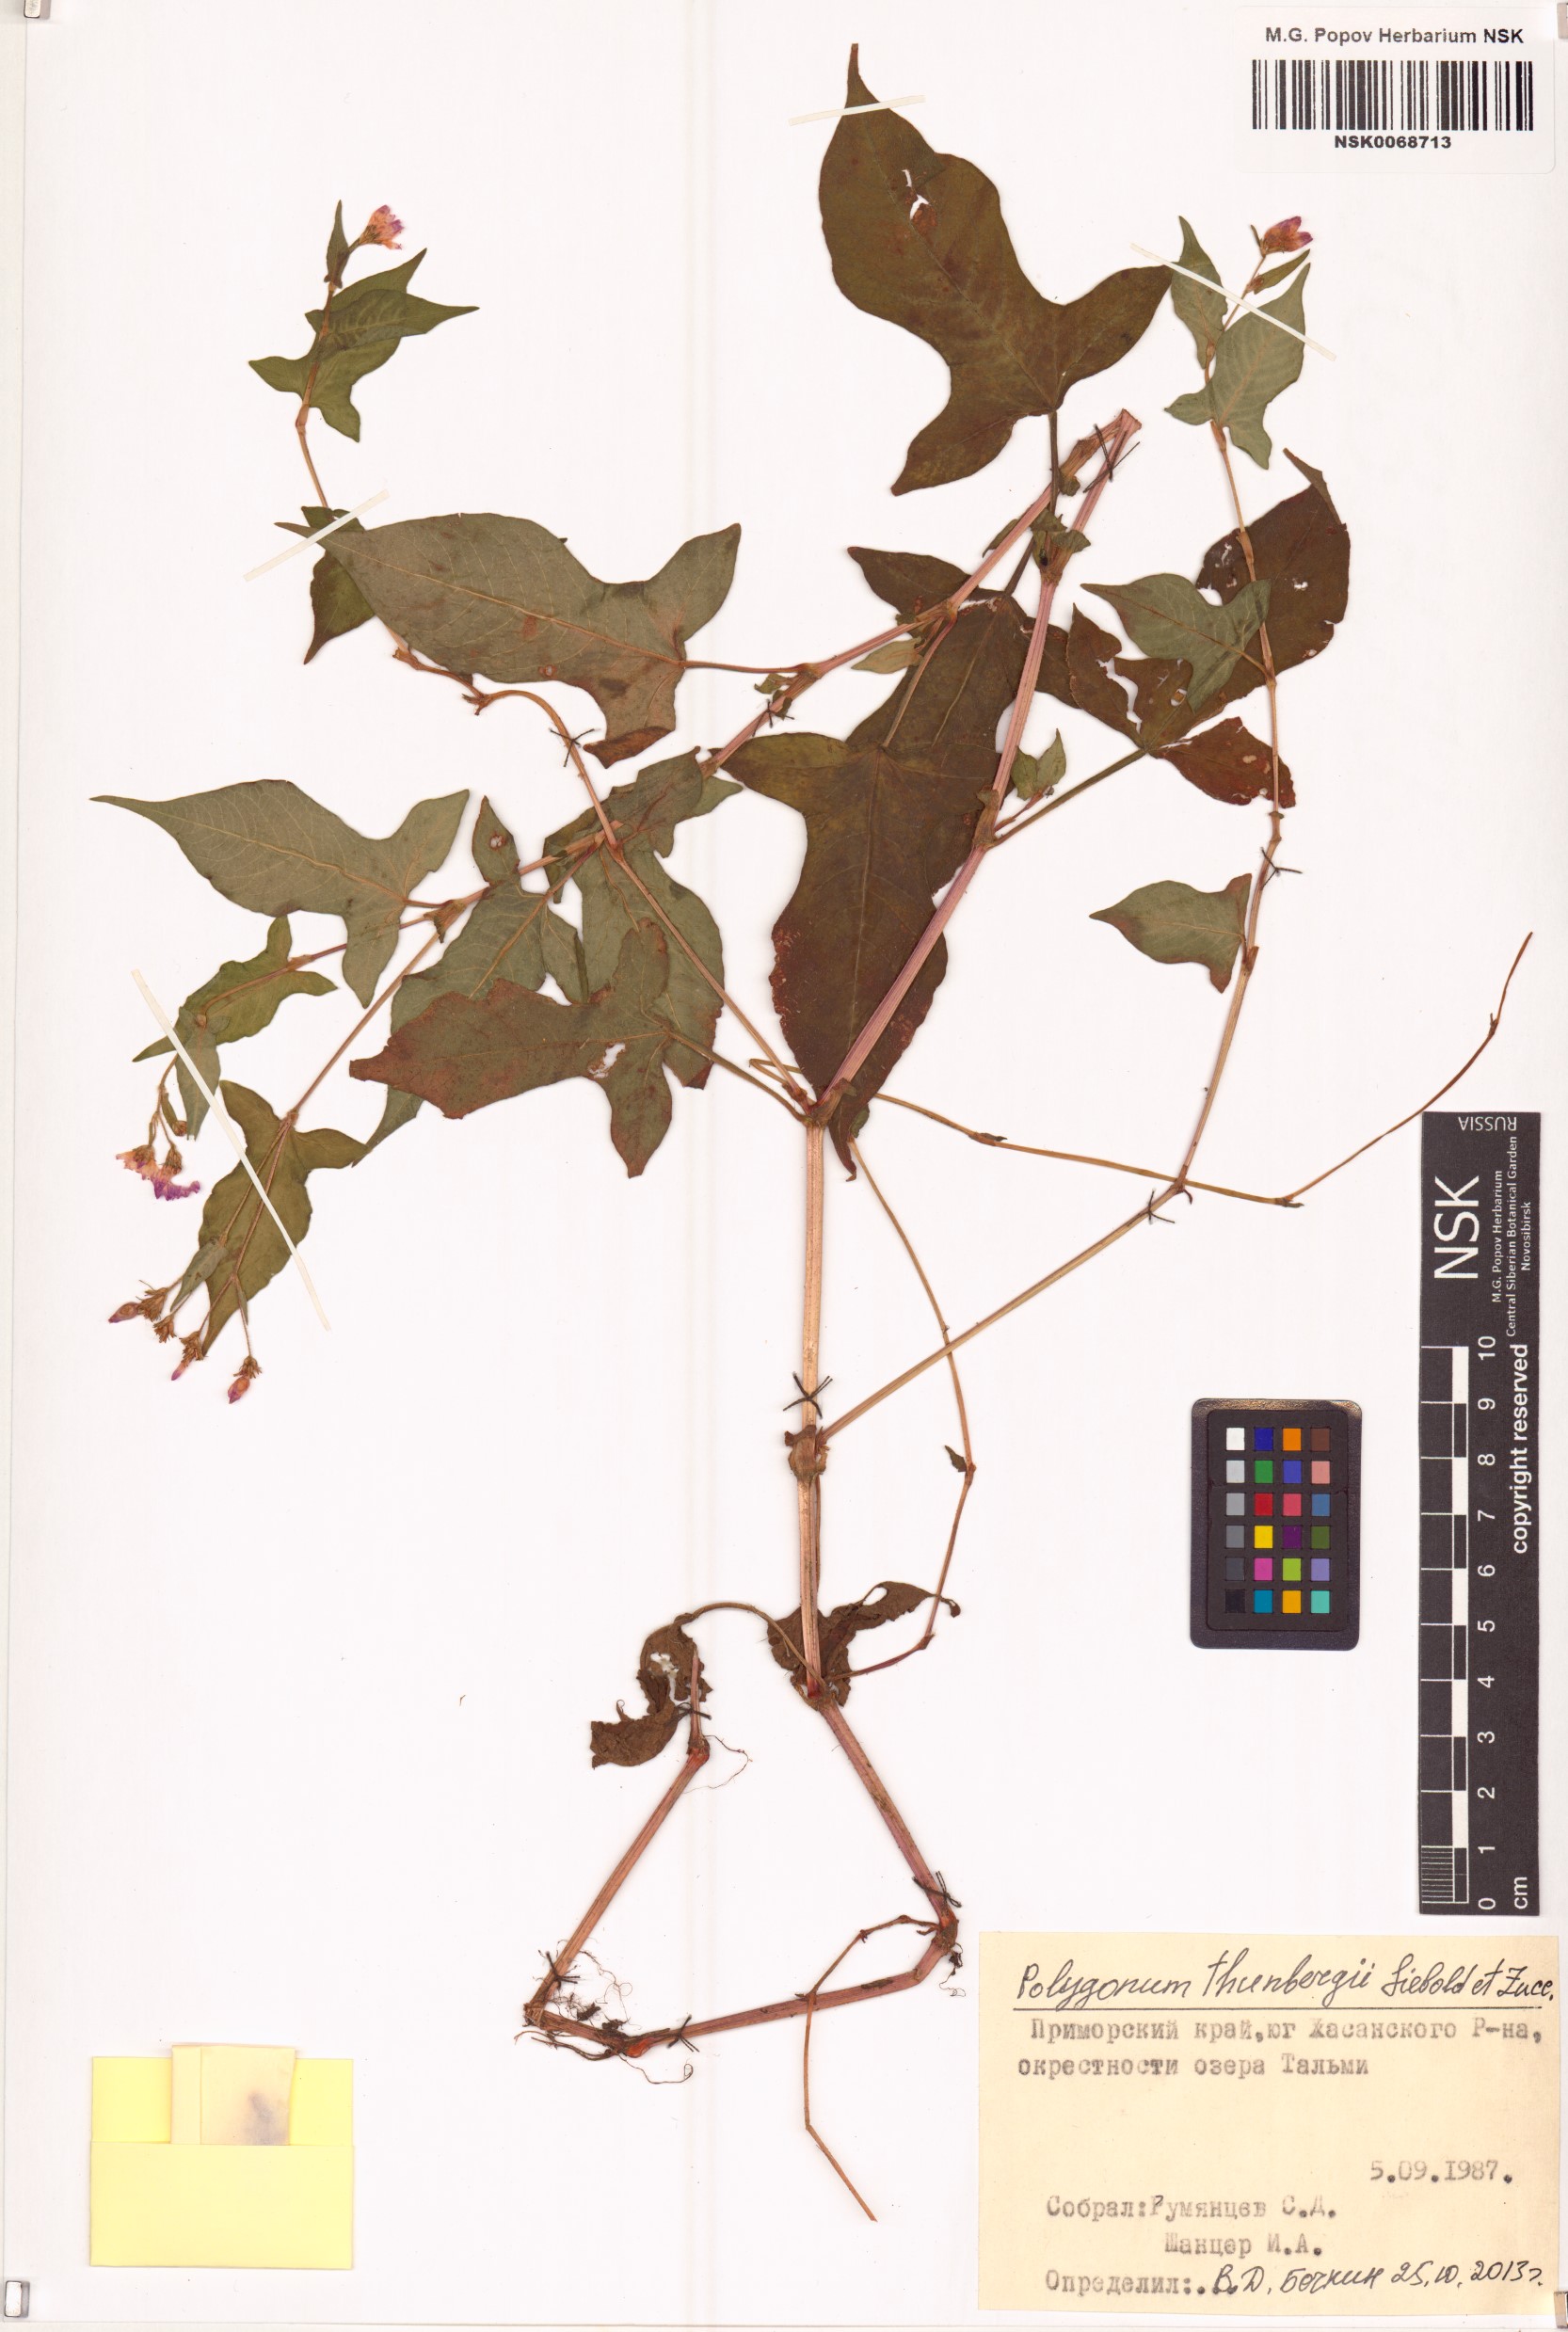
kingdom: Plantae
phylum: Tracheophyta
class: Magnoliopsida
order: Caryophyllales
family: Polygonaceae
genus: Persicaria
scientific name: Persicaria thunbergii
